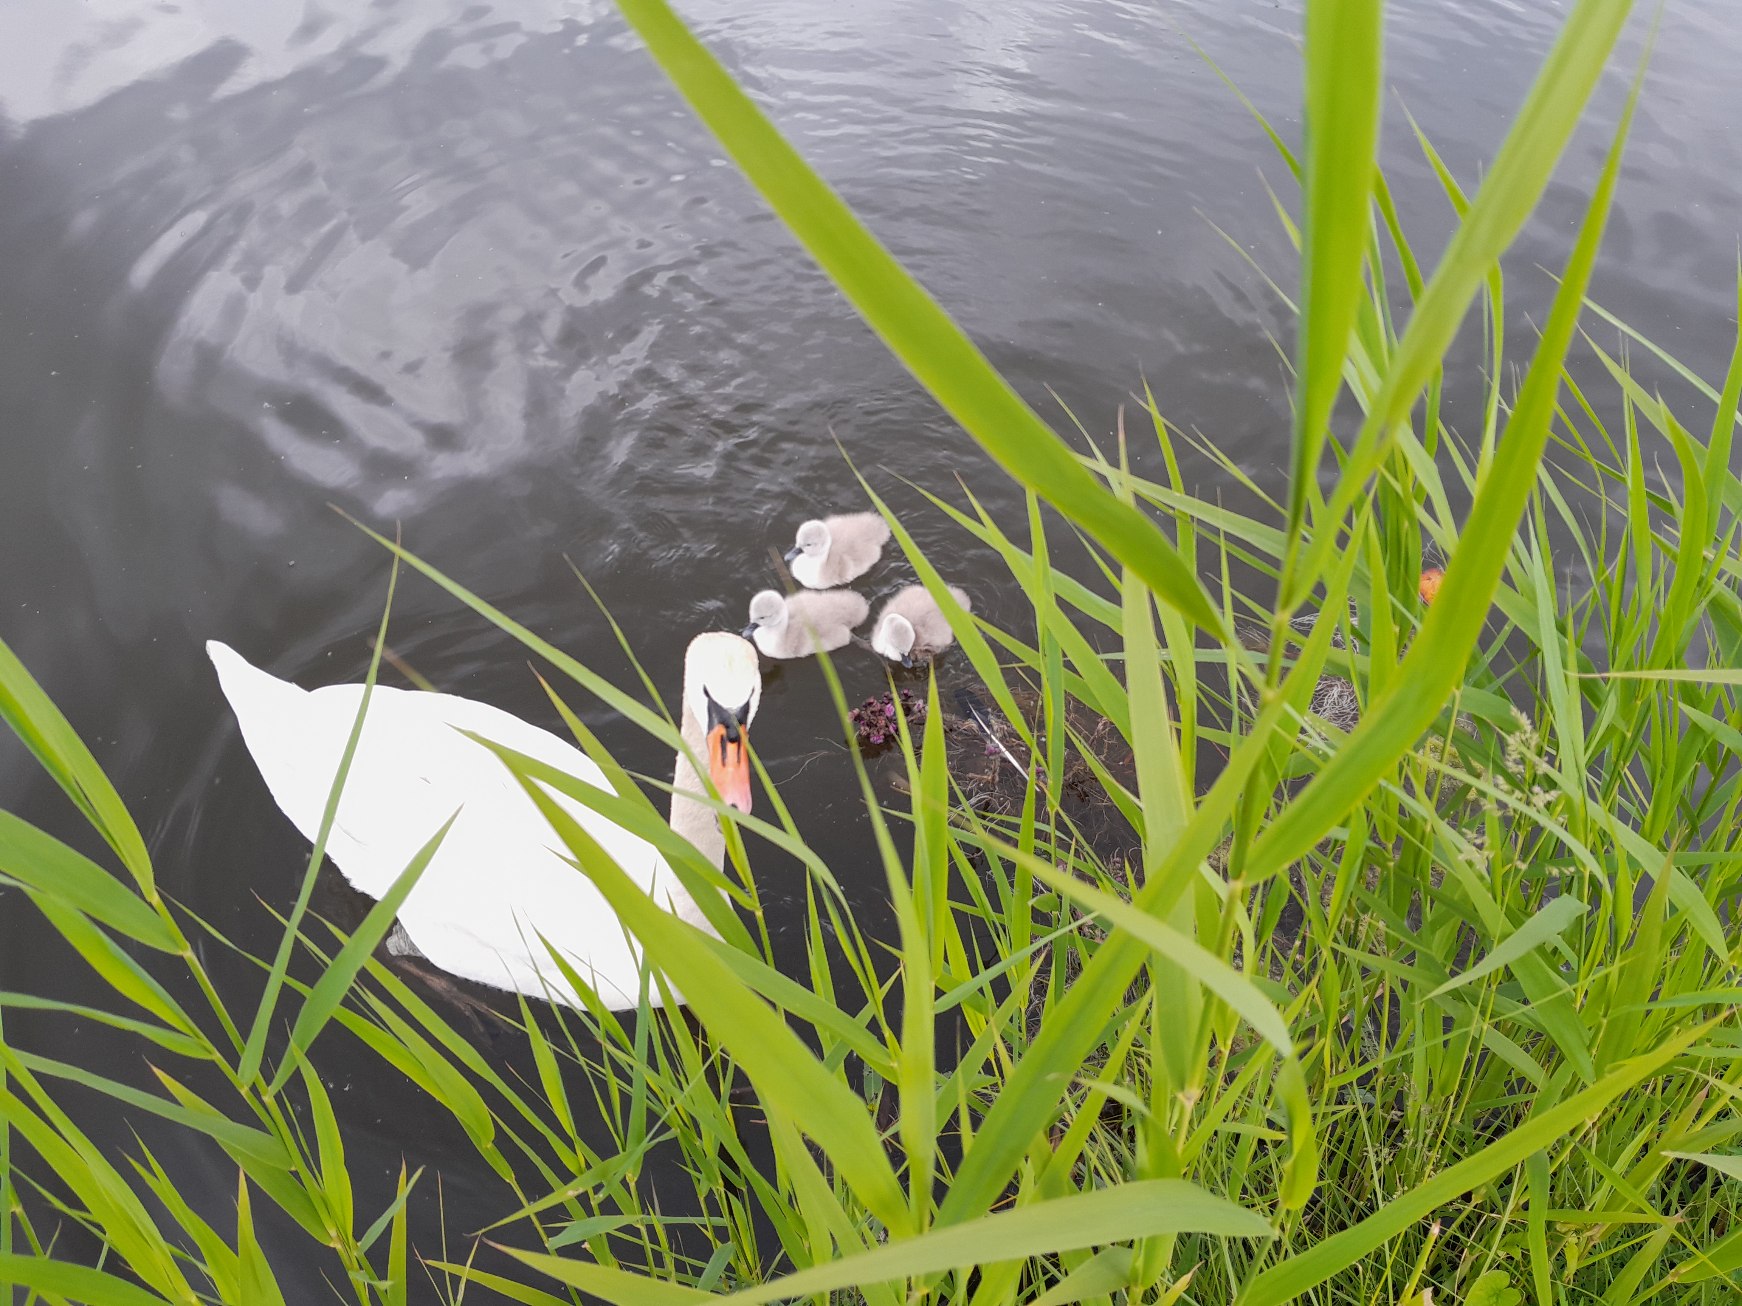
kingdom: Animalia
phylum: Chordata
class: Aves
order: Anseriformes
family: Anatidae
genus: Cygnus
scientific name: Cygnus olor
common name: Knopsvane
